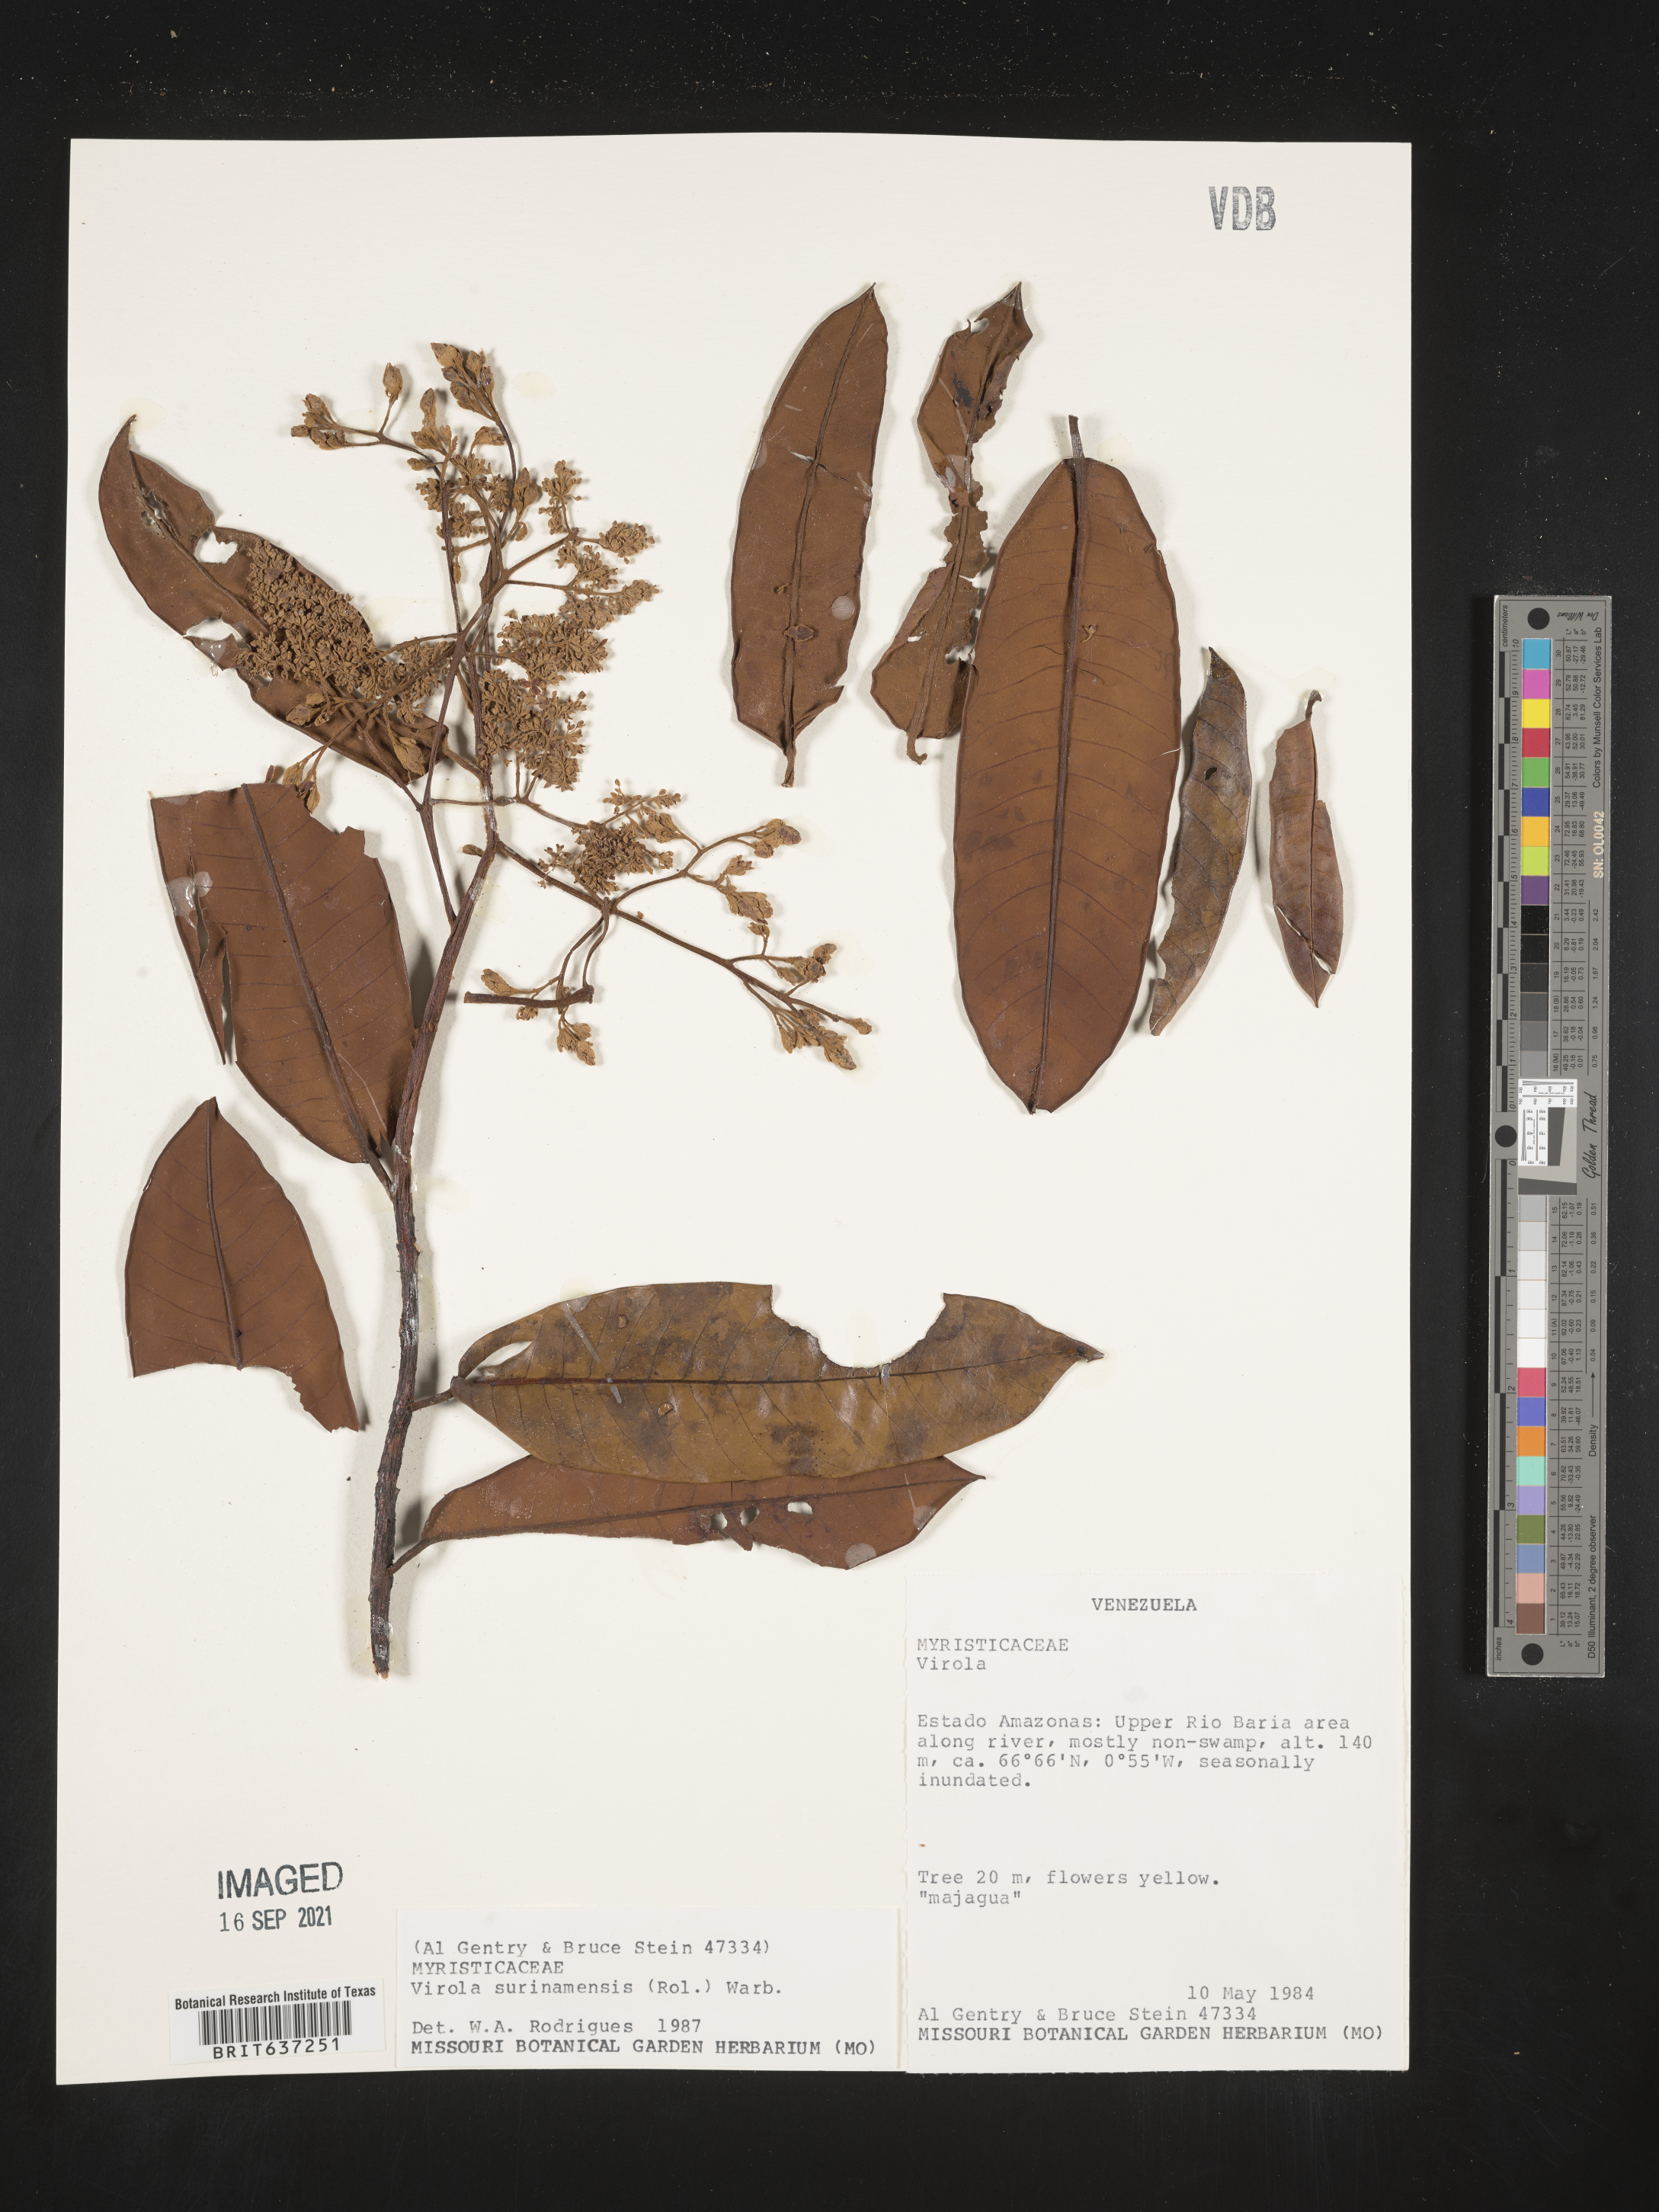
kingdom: Plantae
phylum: Tracheophyta
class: Magnoliopsida
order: Magnoliales
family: Myristicaceae
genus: Virola
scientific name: Virola
